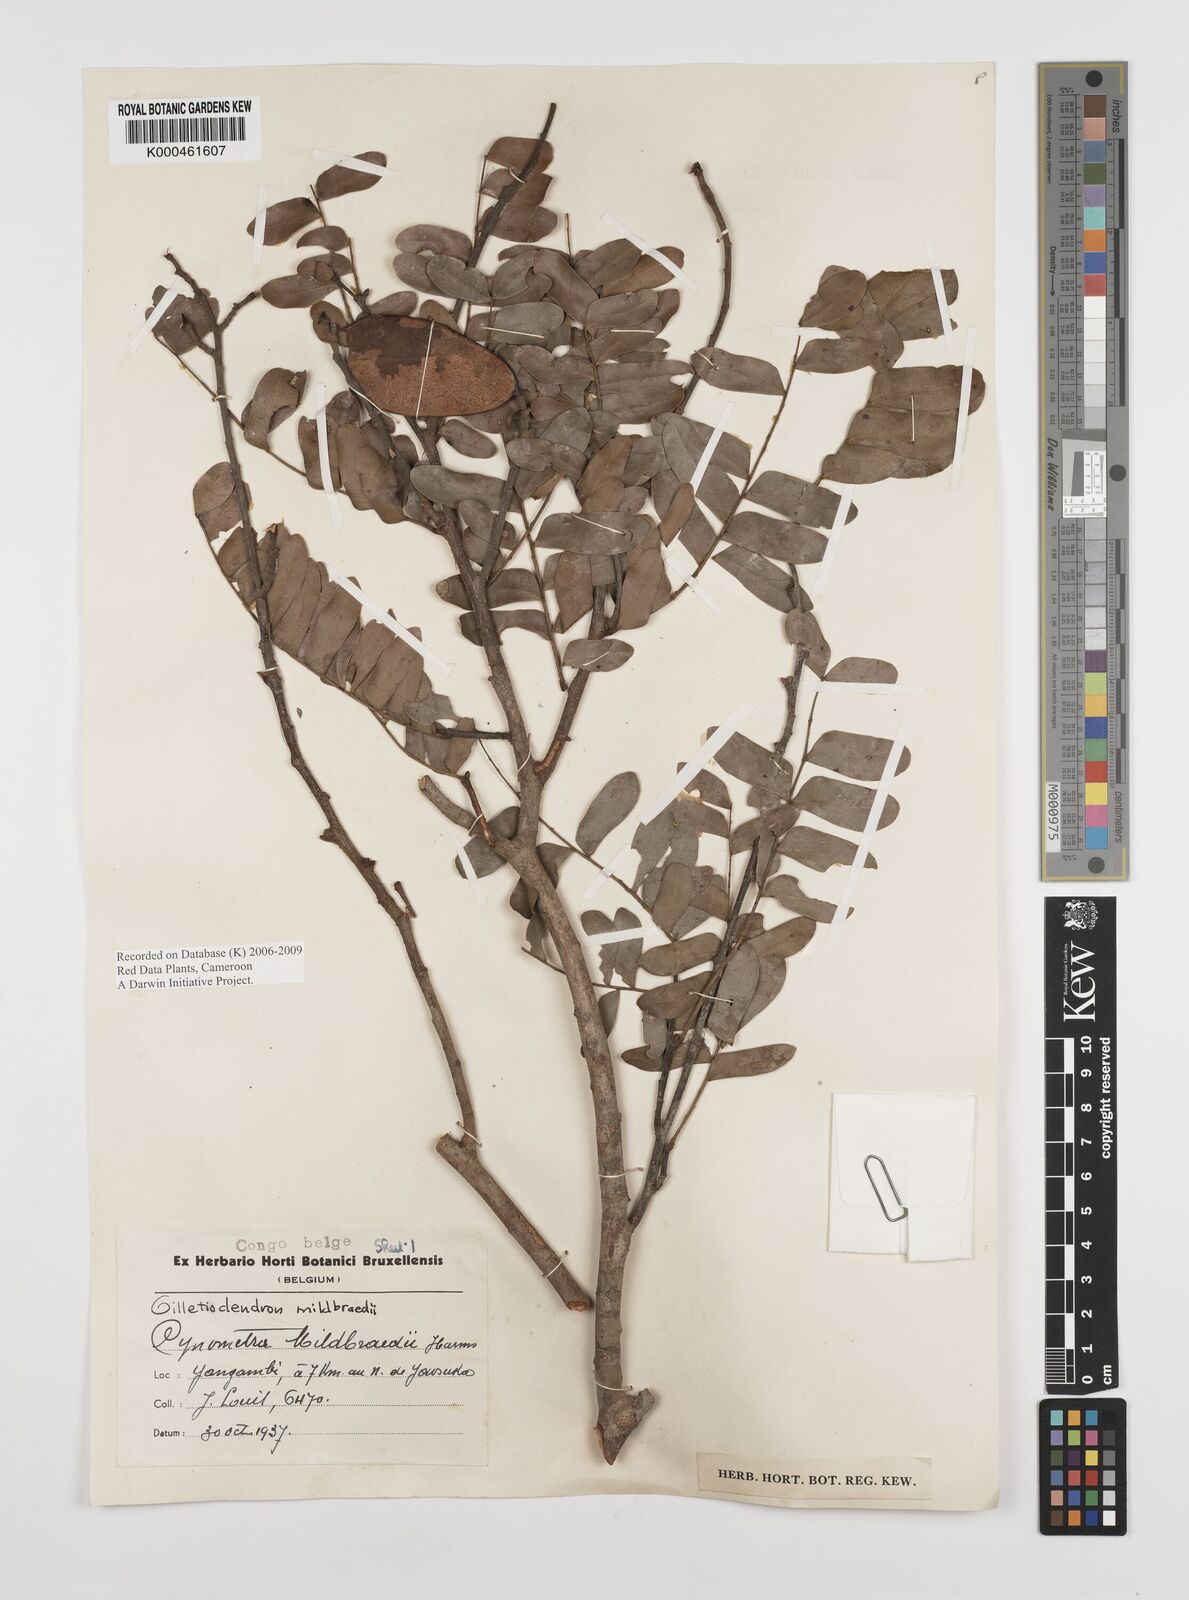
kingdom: Plantae
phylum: Tracheophyta
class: Magnoliopsida
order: Fabales
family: Fabaceae
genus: Gilletiodendron
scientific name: Gilletiodendron mildbraedii
